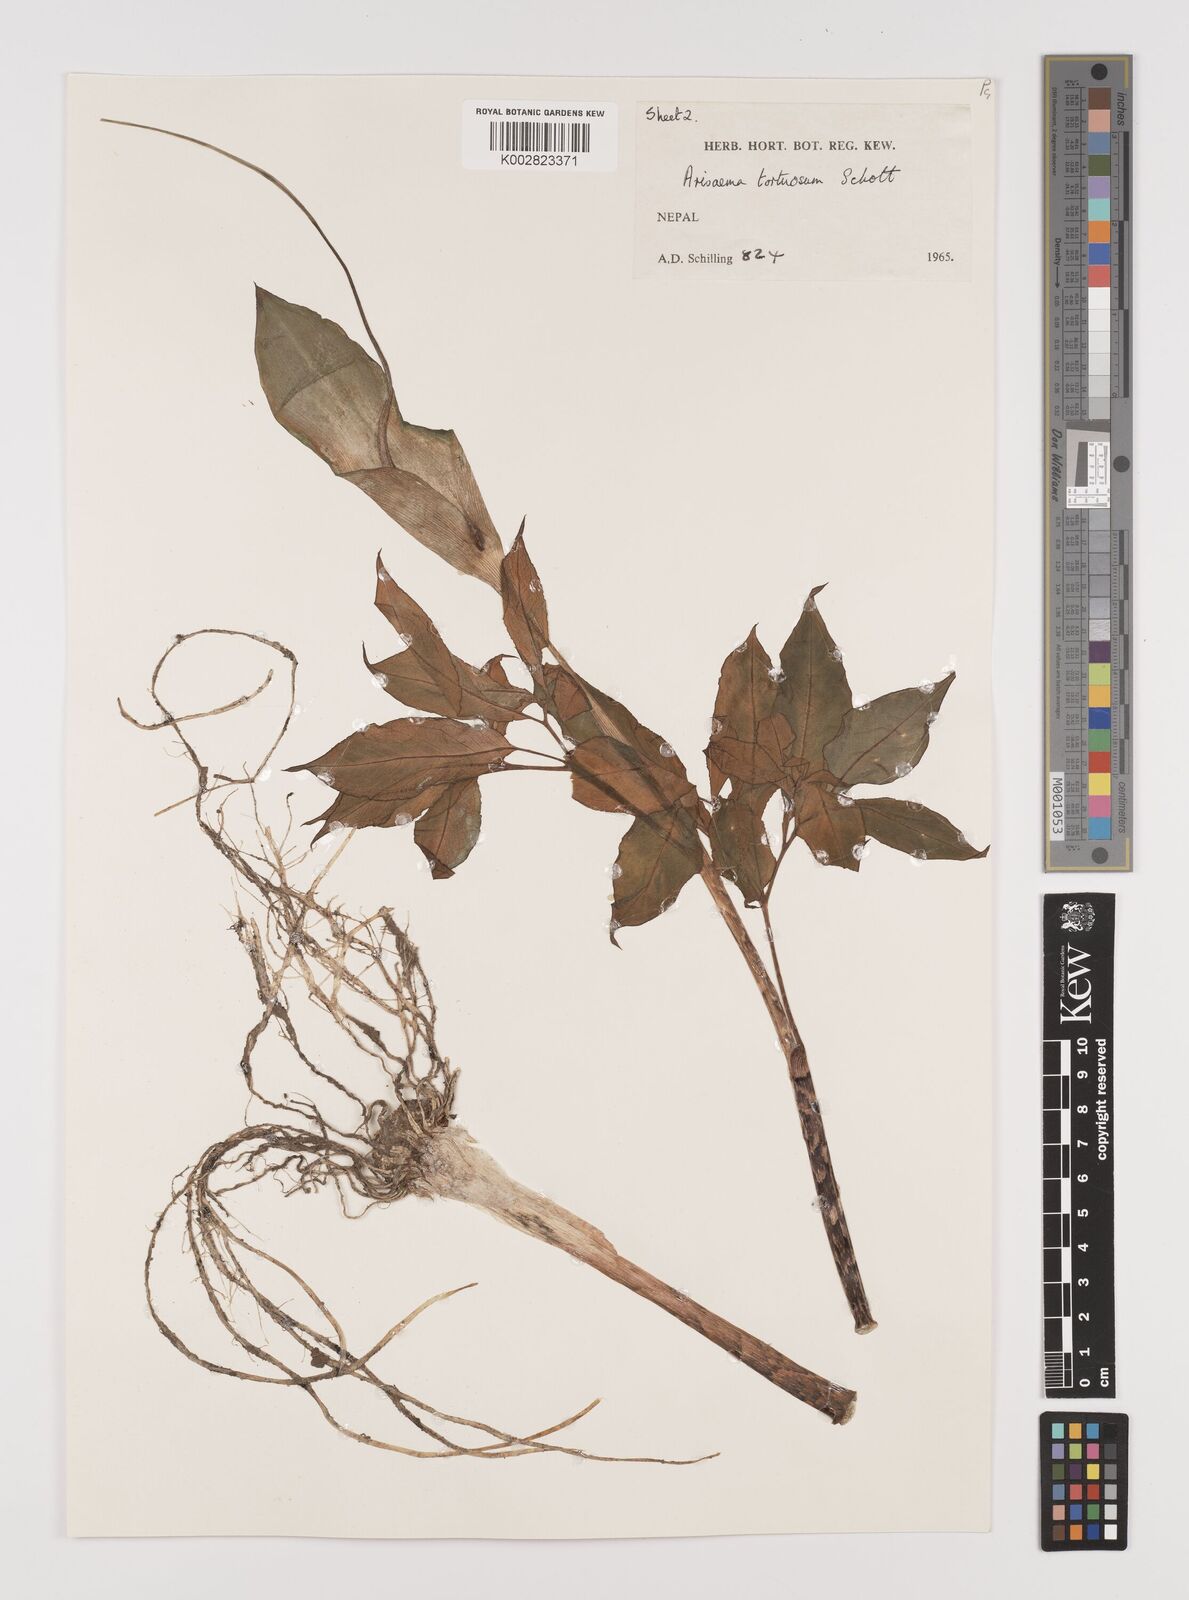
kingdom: Plantae
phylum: Tracheophyta
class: Liliopsida
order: Alismatales
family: Araceae
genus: Arisaema
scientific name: Arisaema tortuosum
